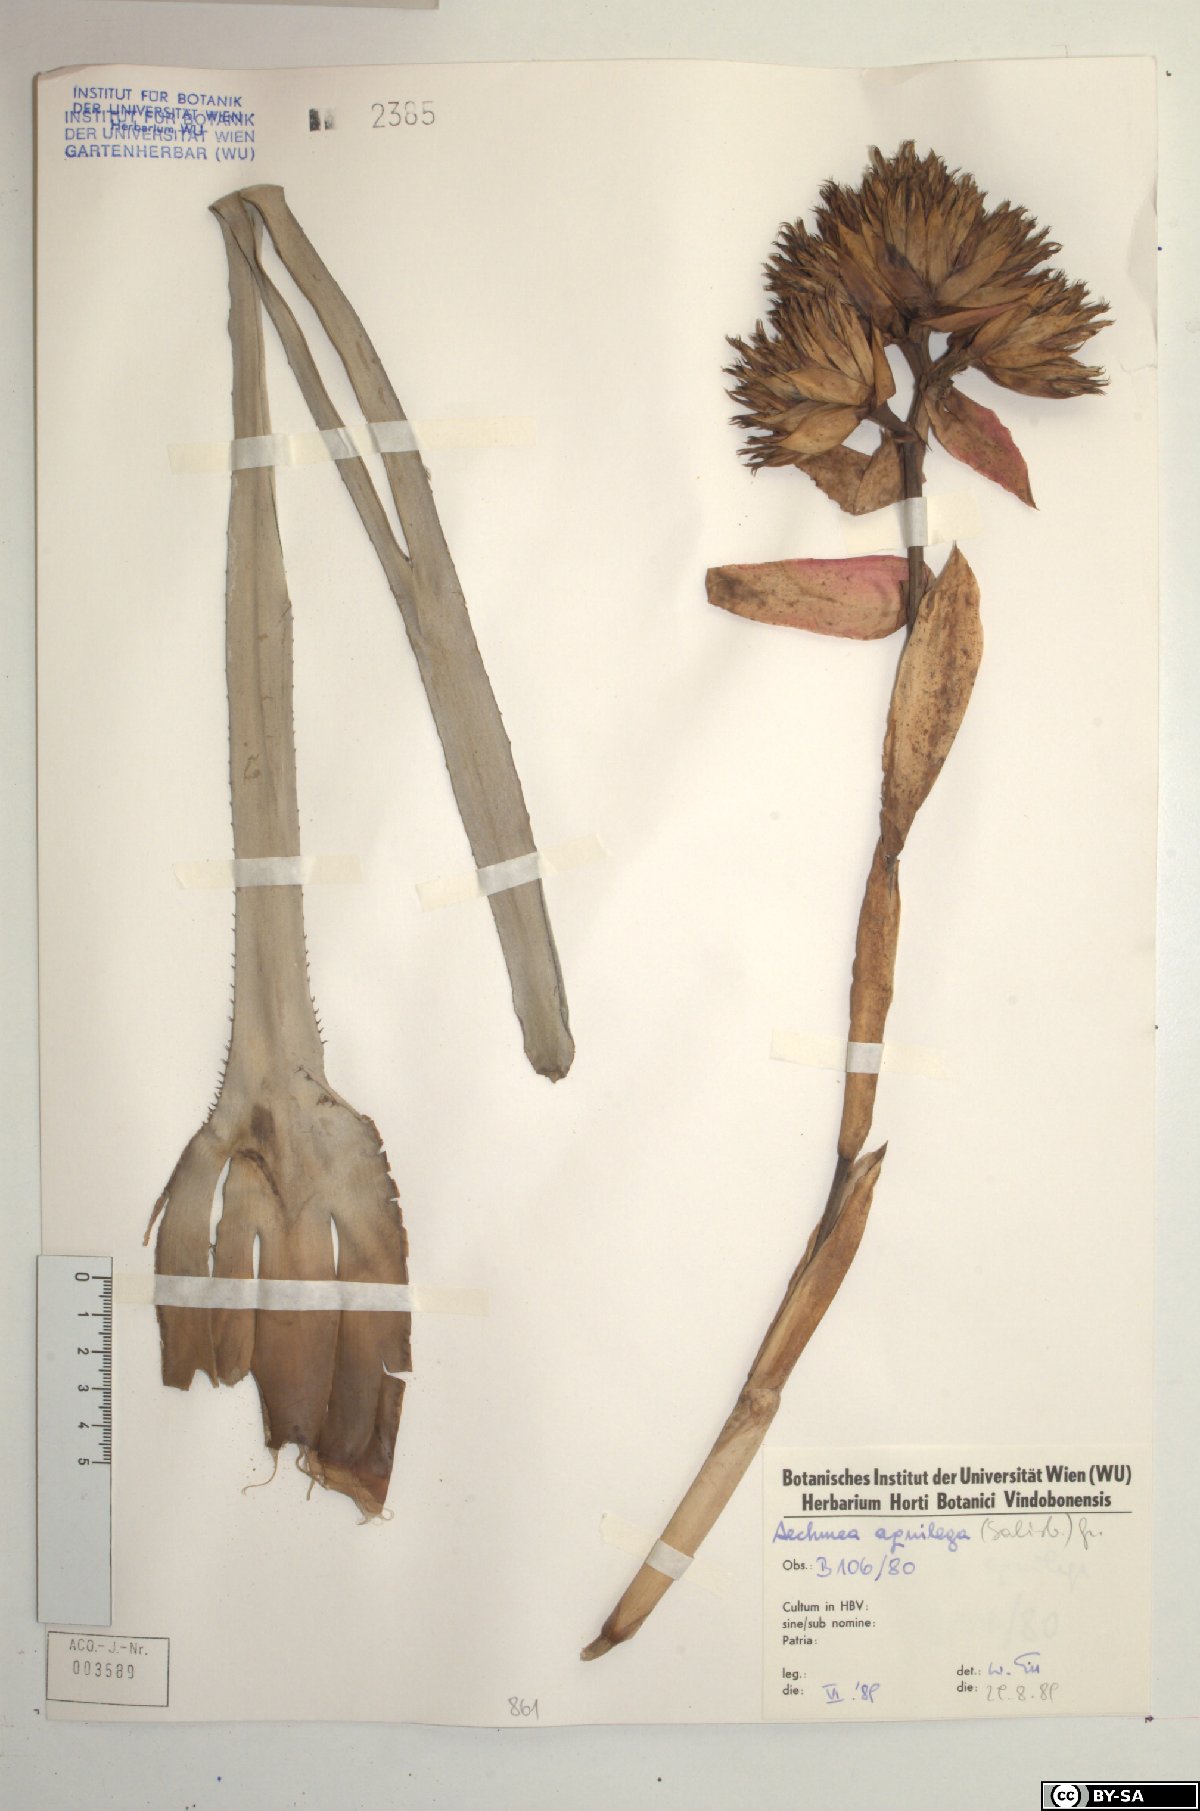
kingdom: Plantae
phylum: Tracheophyta
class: Liliopsida
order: Poales
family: Bromeliaceae
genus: Aechmea
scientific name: Aechmea aquilega
